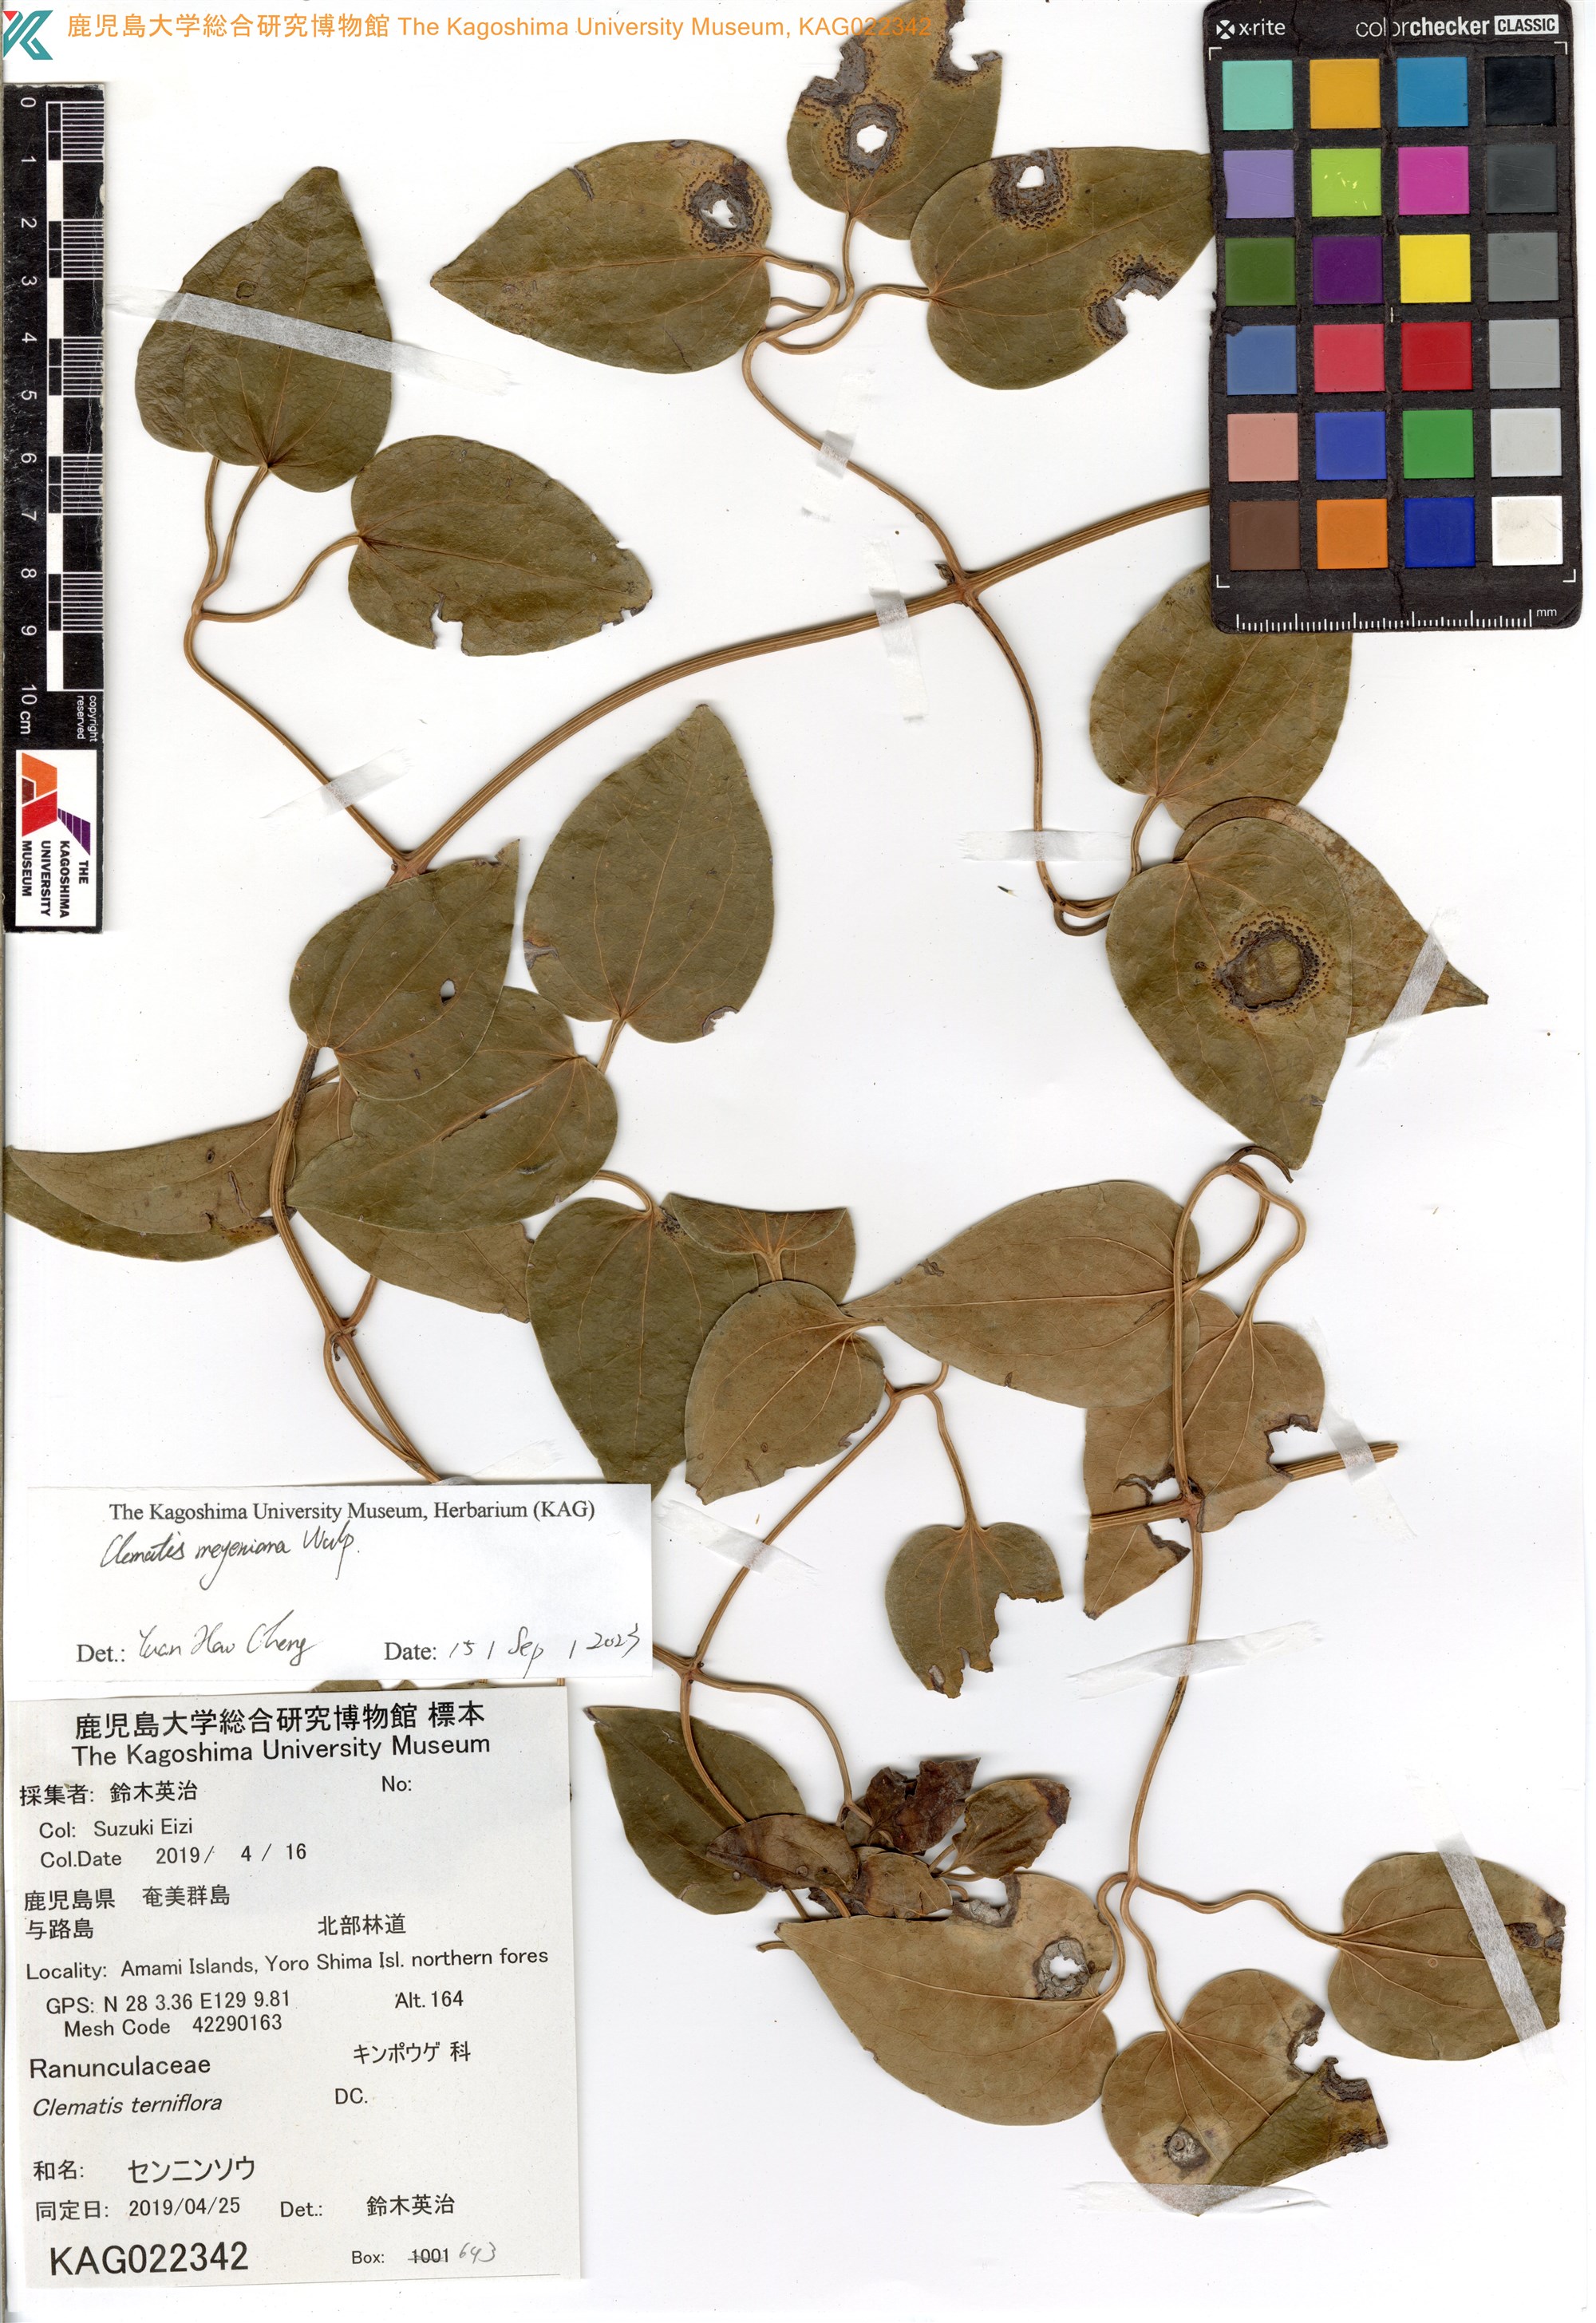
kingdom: Plantae
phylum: Tracheophyta
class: Magnoliopsida
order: Ranunculales
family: Ranunculaceae
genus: Clematis
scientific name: Clematis terniflora
